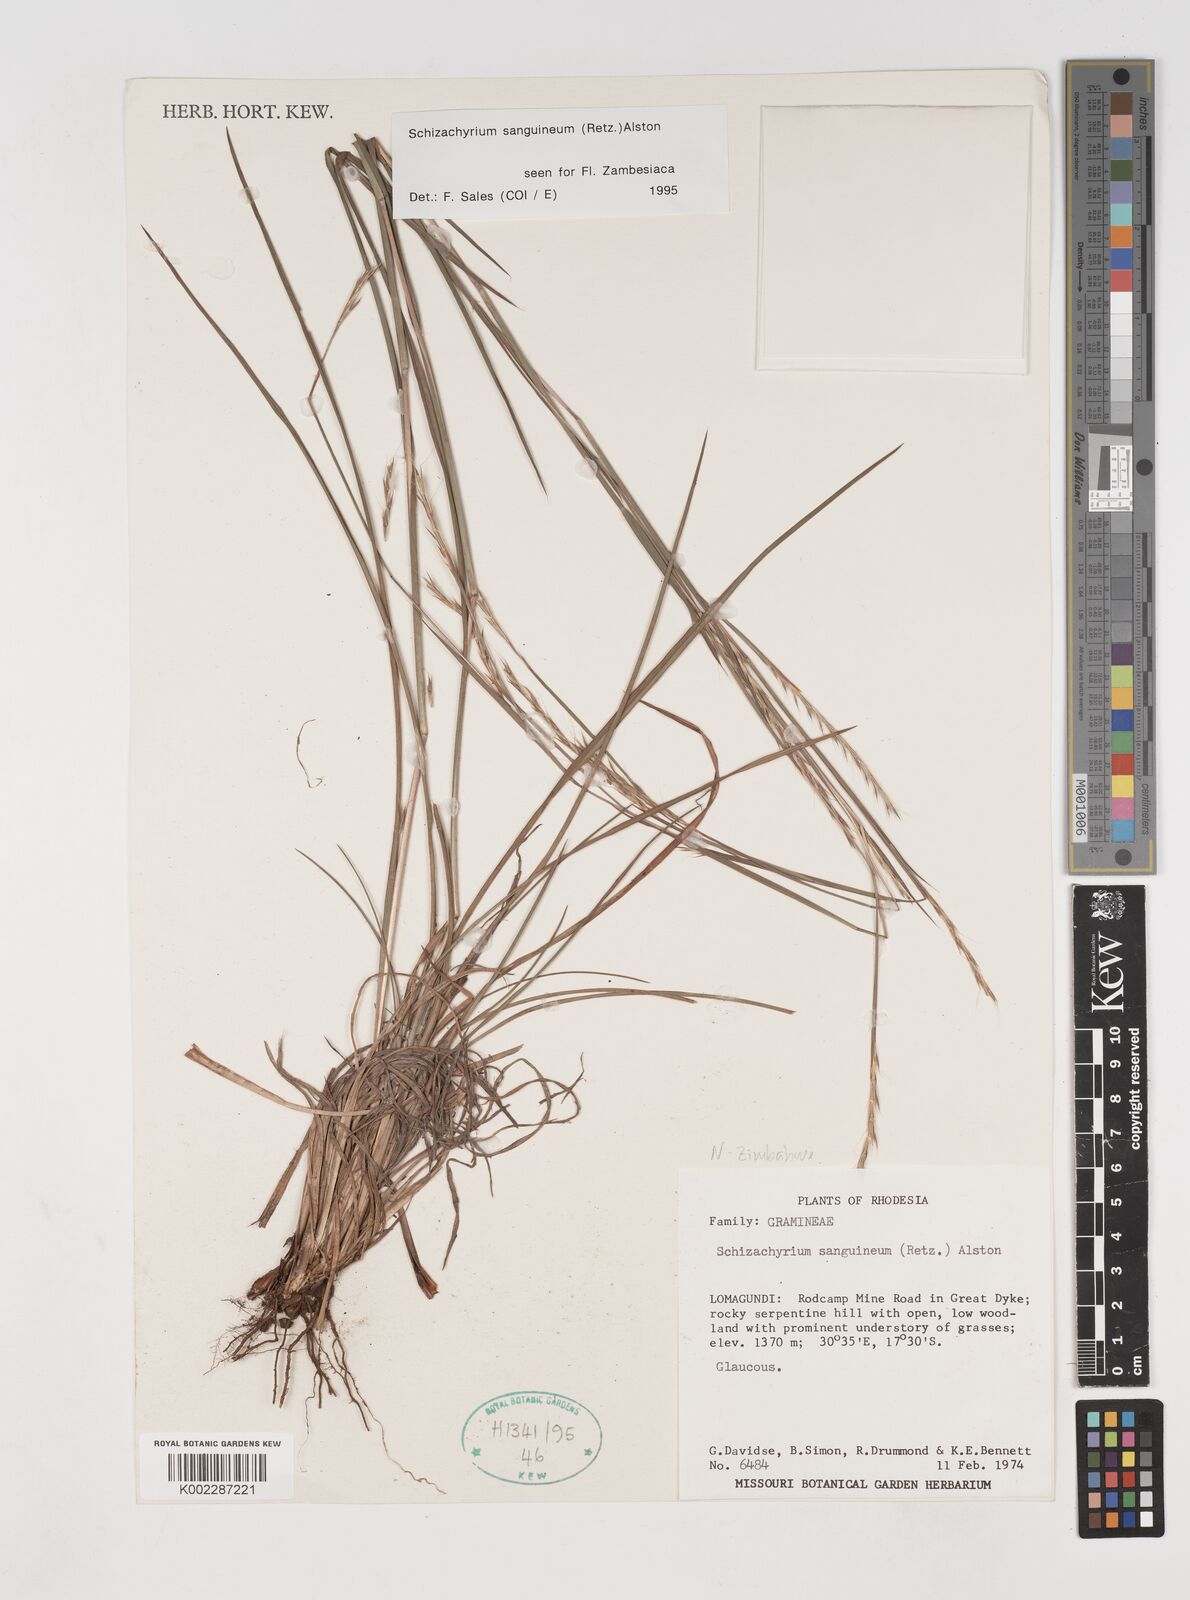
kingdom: Plantae
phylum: Tracheophyta
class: Liliopsida
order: Poales
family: Poaceae
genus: Schizachyrium
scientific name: Schizachyrium sanguineum
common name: Crimson bluestem
